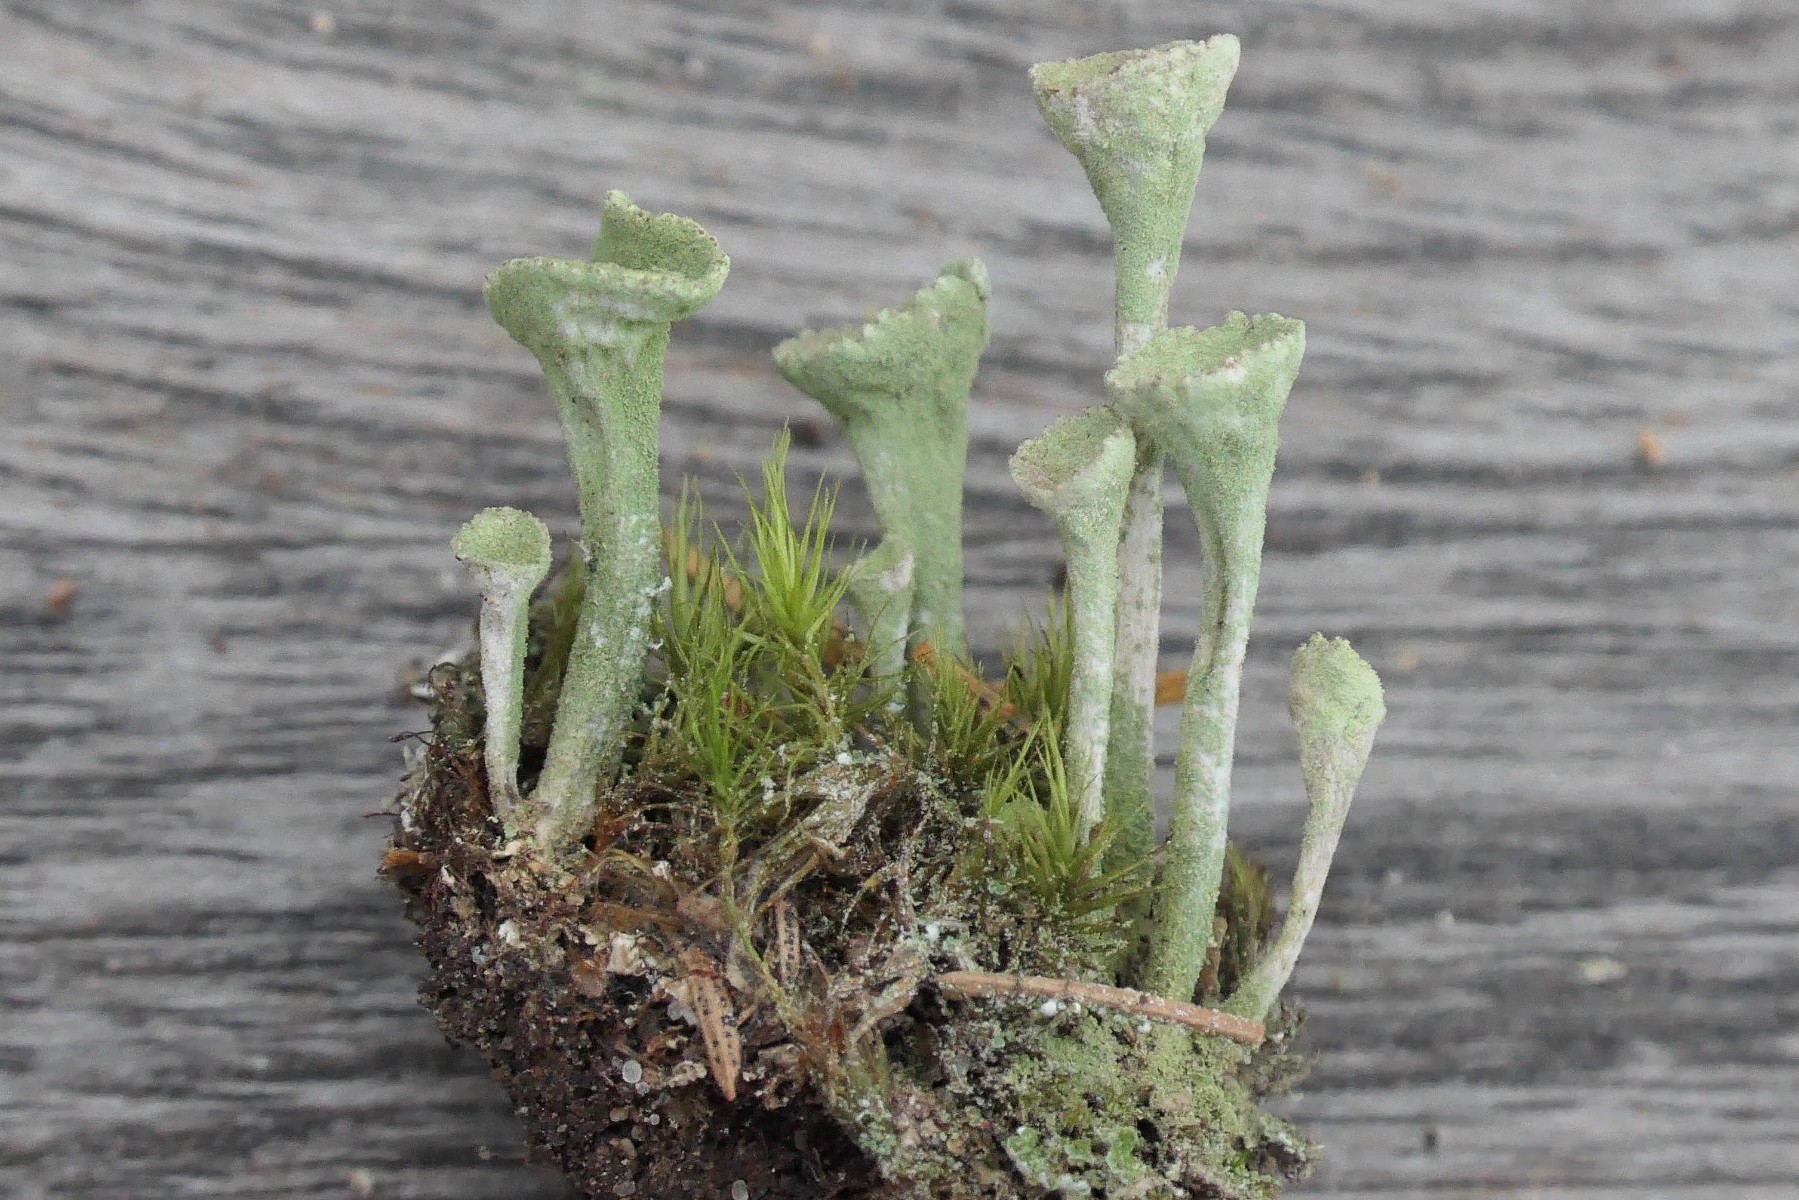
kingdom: Fungi
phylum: Ascomycota
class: Lecanoromycetes
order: Lecanorales
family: Cladoniaceae
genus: Cladonia
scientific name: Cladonia fimbriata
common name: bleggrøn bægerlav
